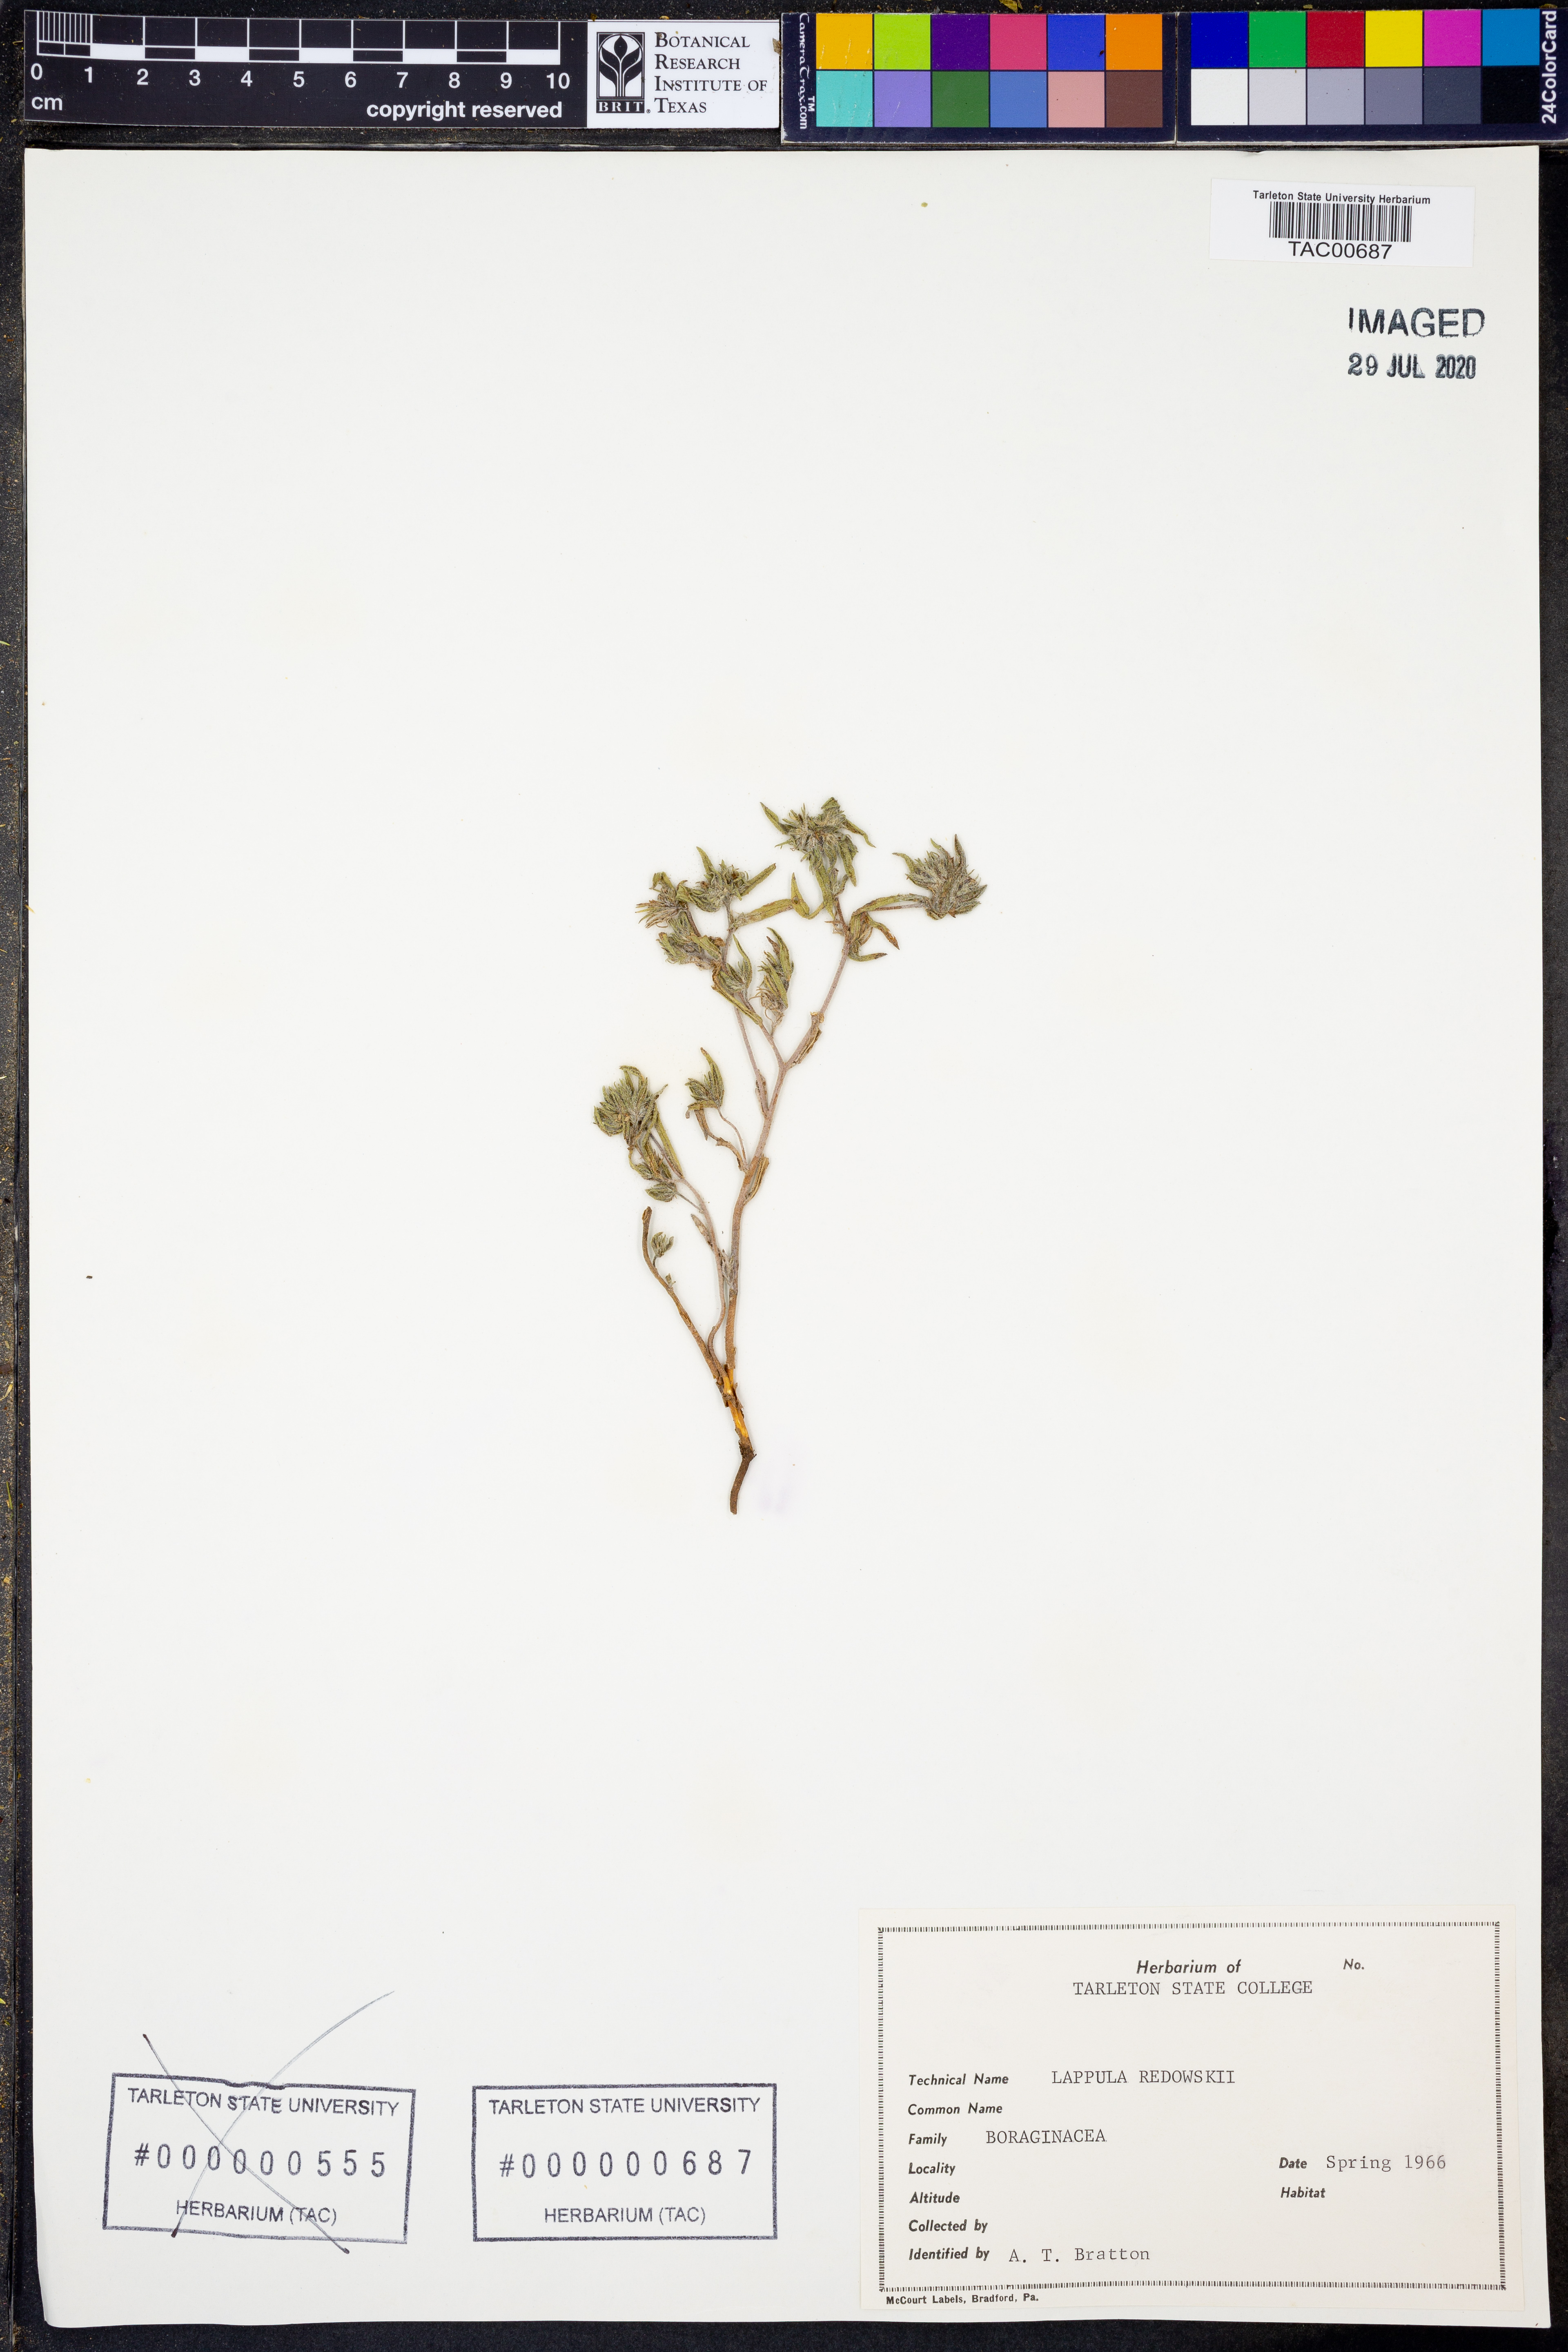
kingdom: Plantae
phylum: Tracheophyta
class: Magnoliopsida
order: Boraginales
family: Boraginaceae
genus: Lappula
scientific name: Lappula redowskii
